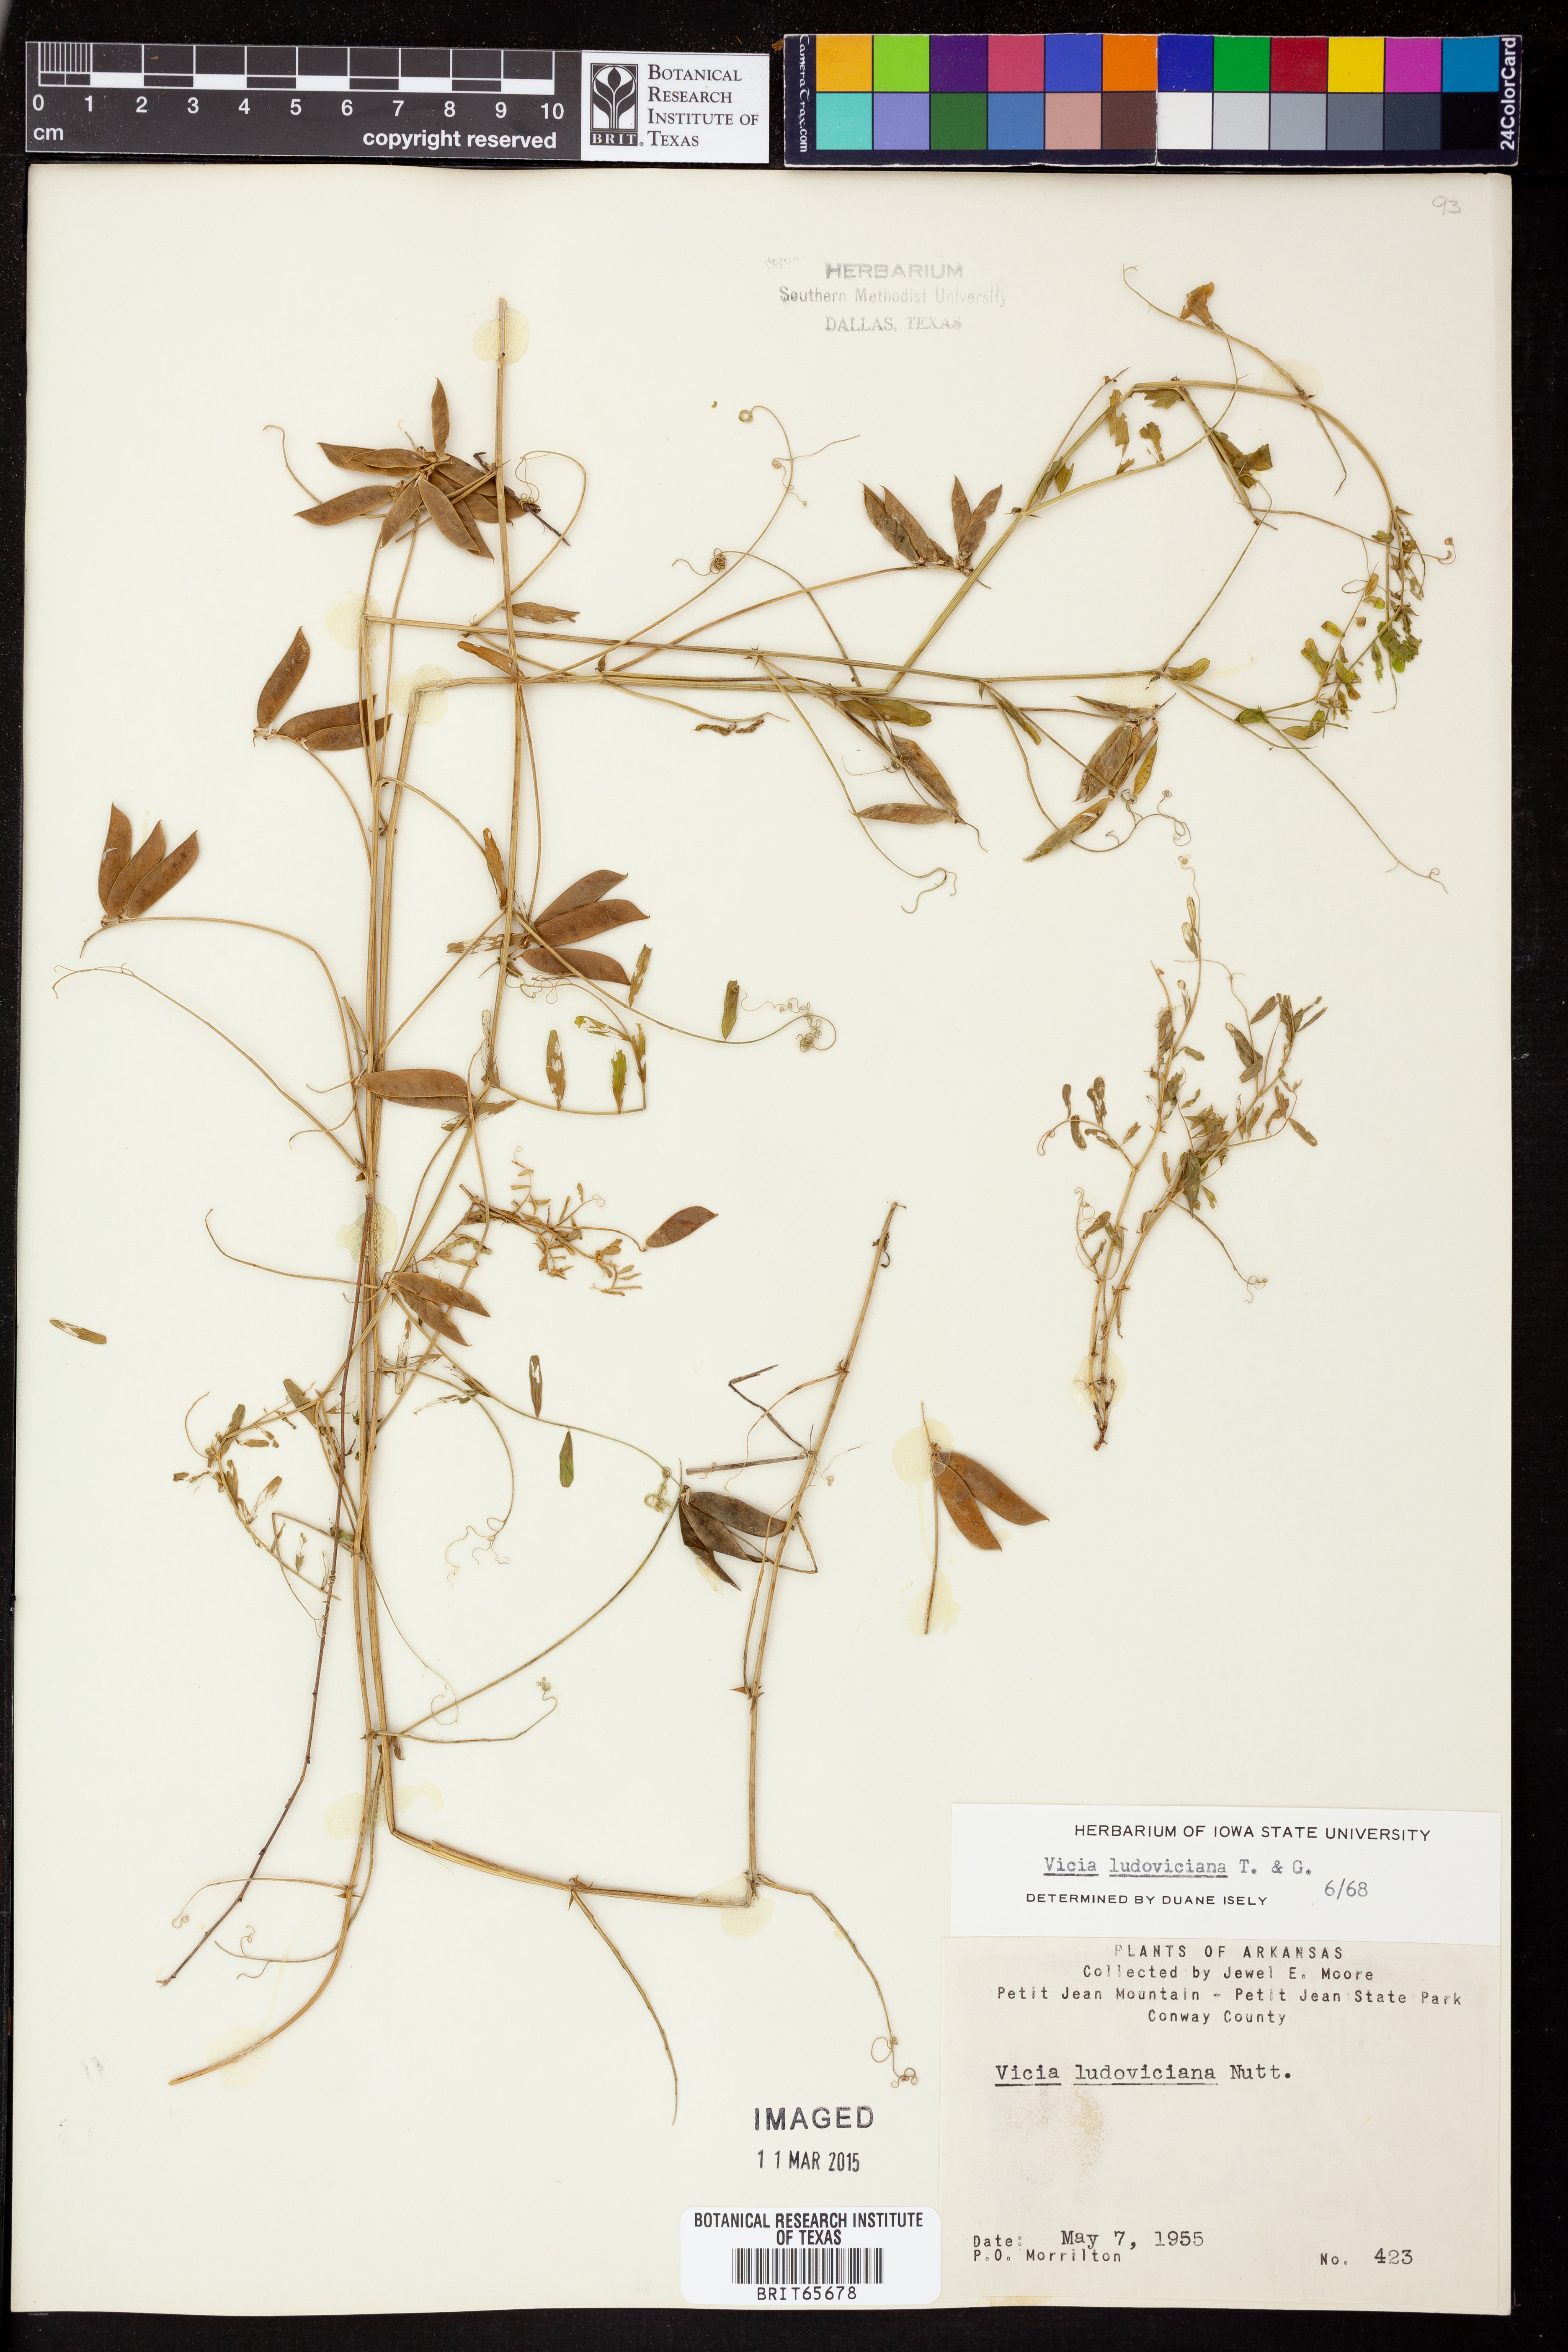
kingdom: Plantae
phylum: Tracheophyta
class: Magnoliopsida
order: Fabales
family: Fabaceae
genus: Vicia
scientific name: Vicia ludoviciana
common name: Louisiana vetch
